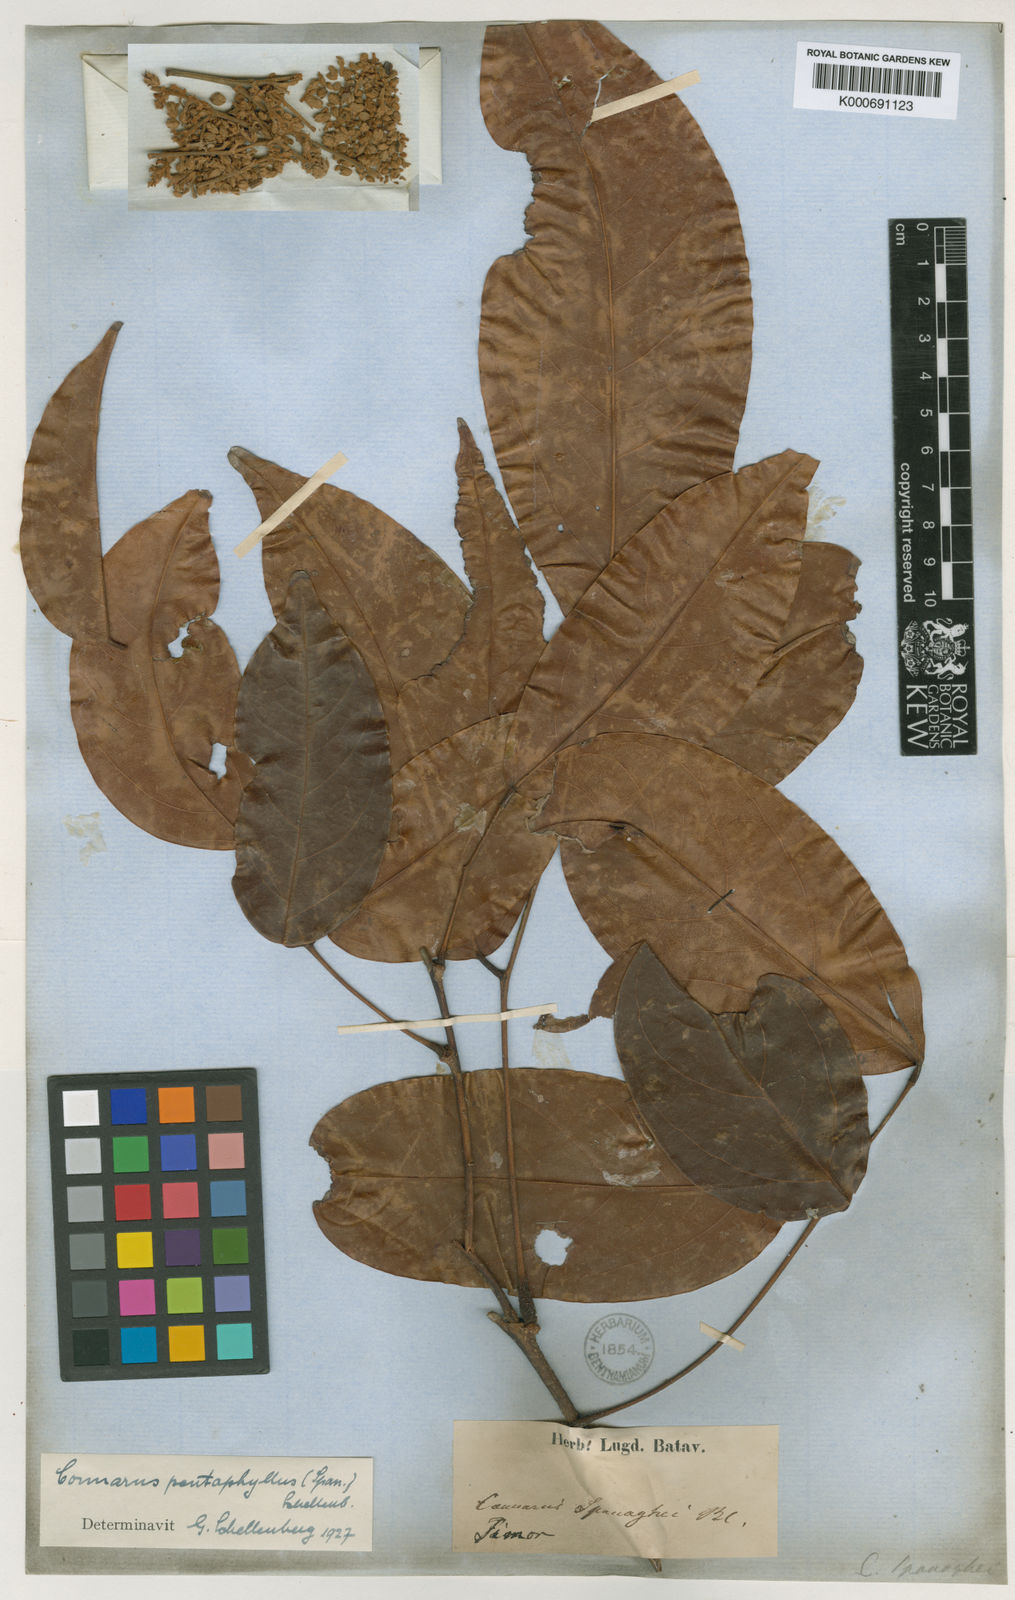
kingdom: Plantae
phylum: Tracheophyta
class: Magnoliopsida
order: Oxalidales
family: Connaraceae
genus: Connarus
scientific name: Connarus semidecandrus
